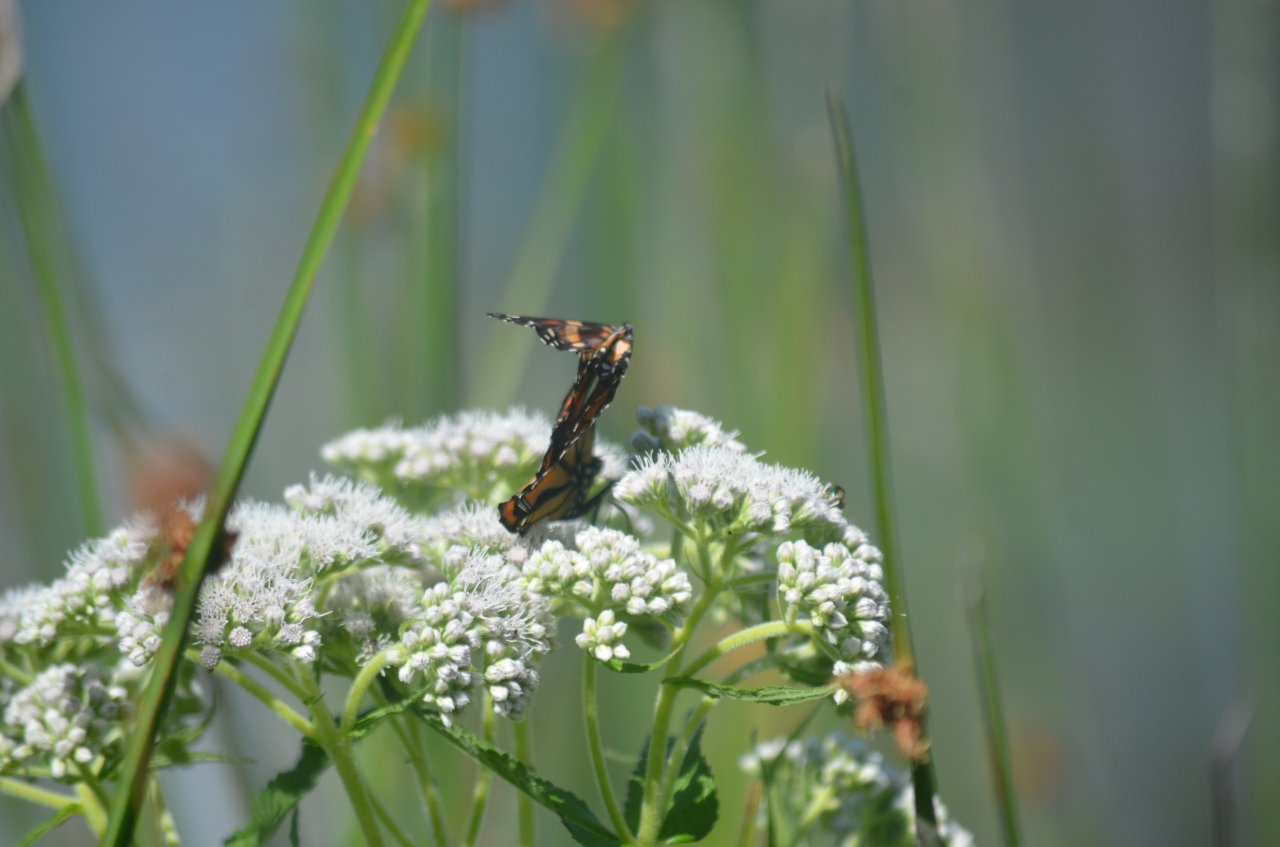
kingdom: Animalia
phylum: Arthropoda
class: Insecta
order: Lepidoptera
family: Nymphalidae
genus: Danaus
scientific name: Danaus plexippus
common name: Monarch
